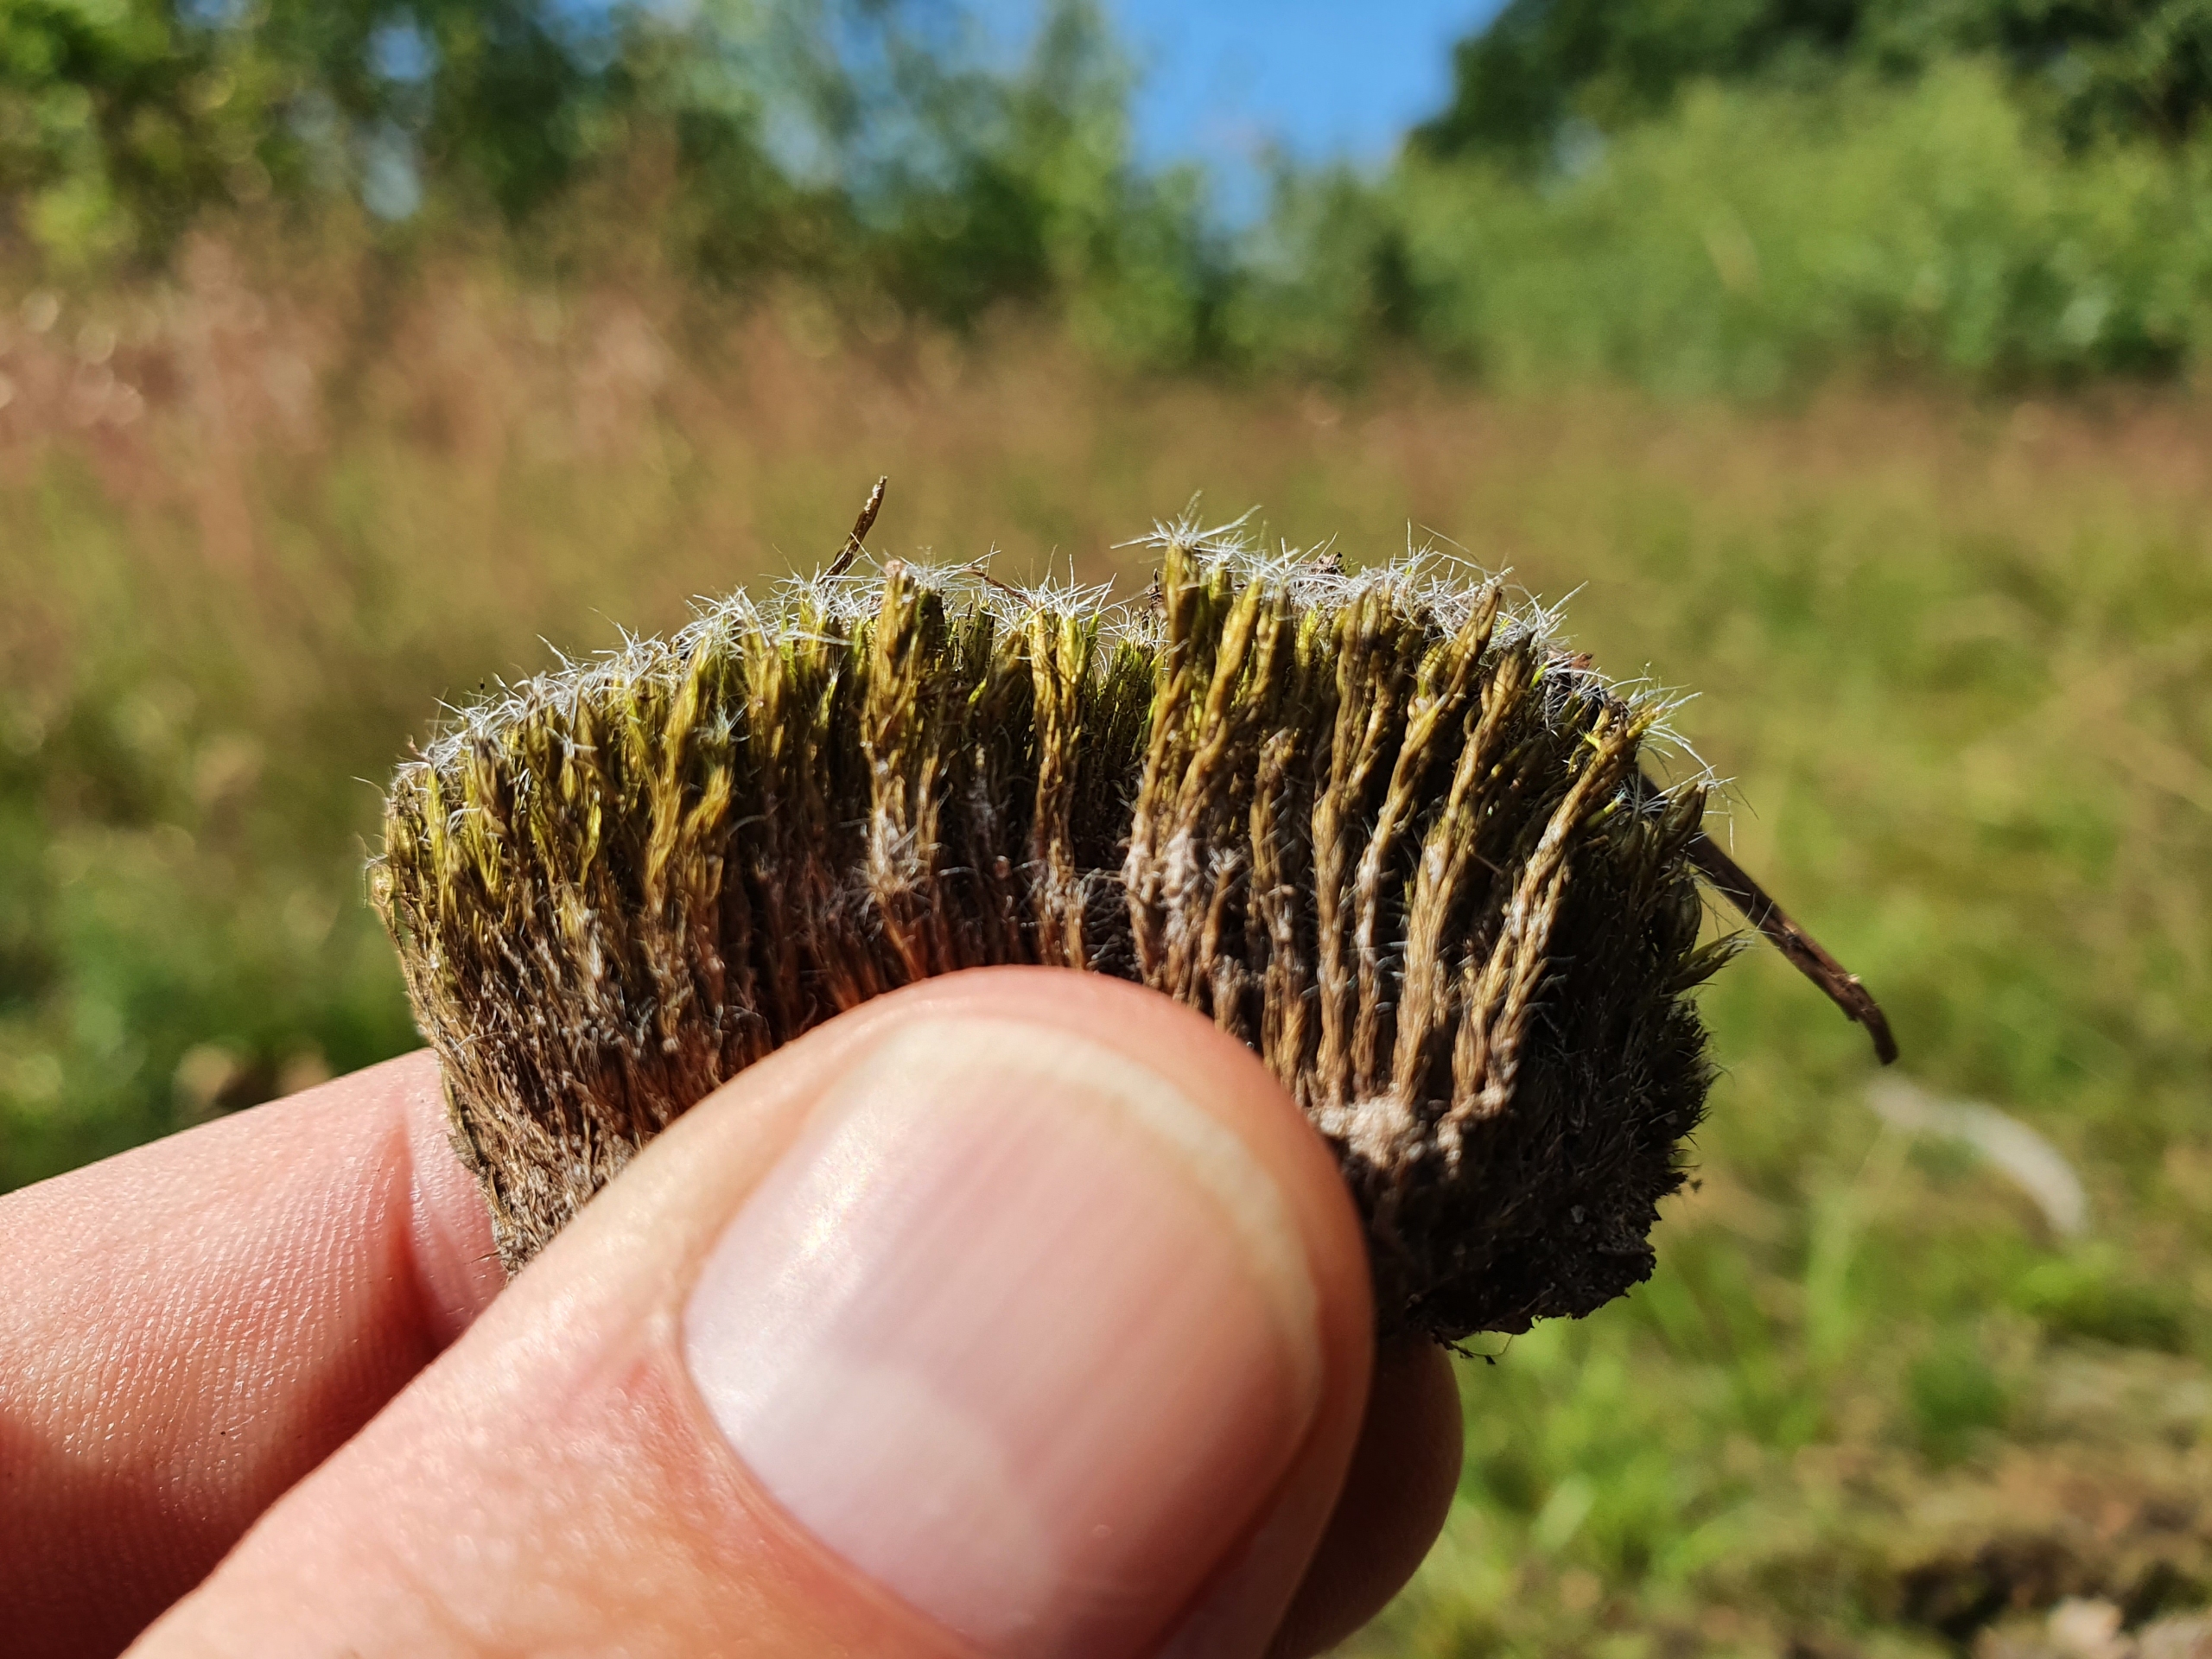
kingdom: Plantae
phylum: Bryophyta
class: Bryopsida
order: Dicranales
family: Leucobryaceae
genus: Campylopus
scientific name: Campylopus introflexus
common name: Stjerne-bredribbe
